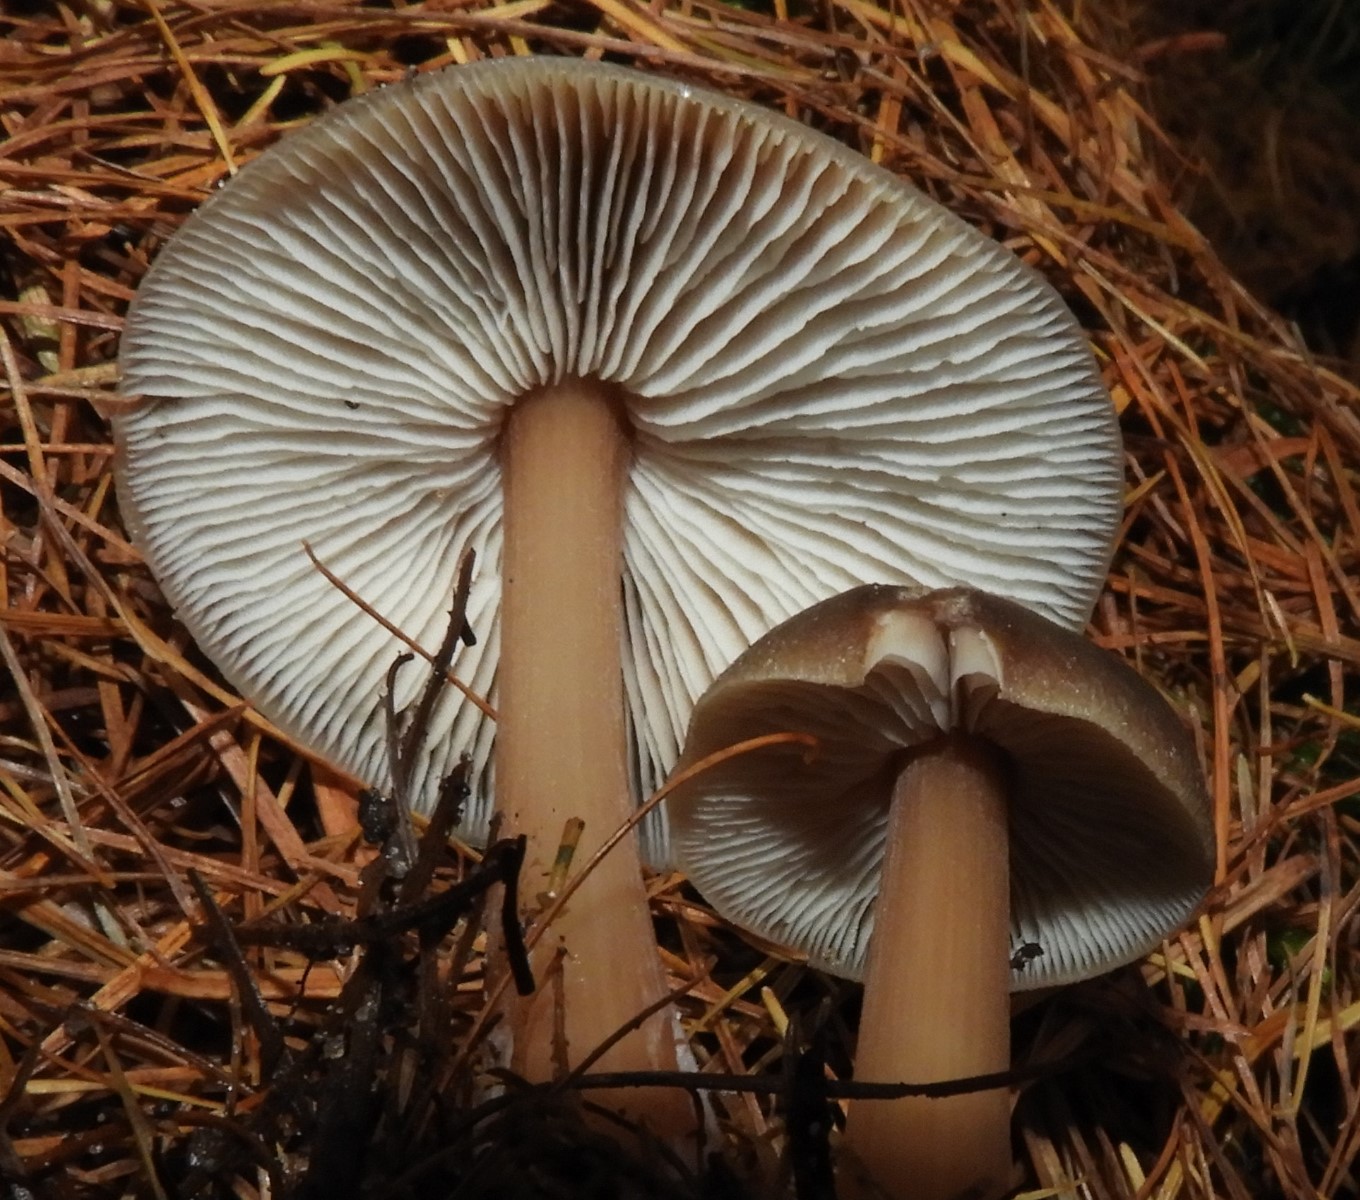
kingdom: Fungi
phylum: Basidiomycota
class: Agaricomycetes
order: Agaricales
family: Omphalotaceae
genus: Rhodocollybia
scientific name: Rhodocollybia asema
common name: horngrå fladhat
